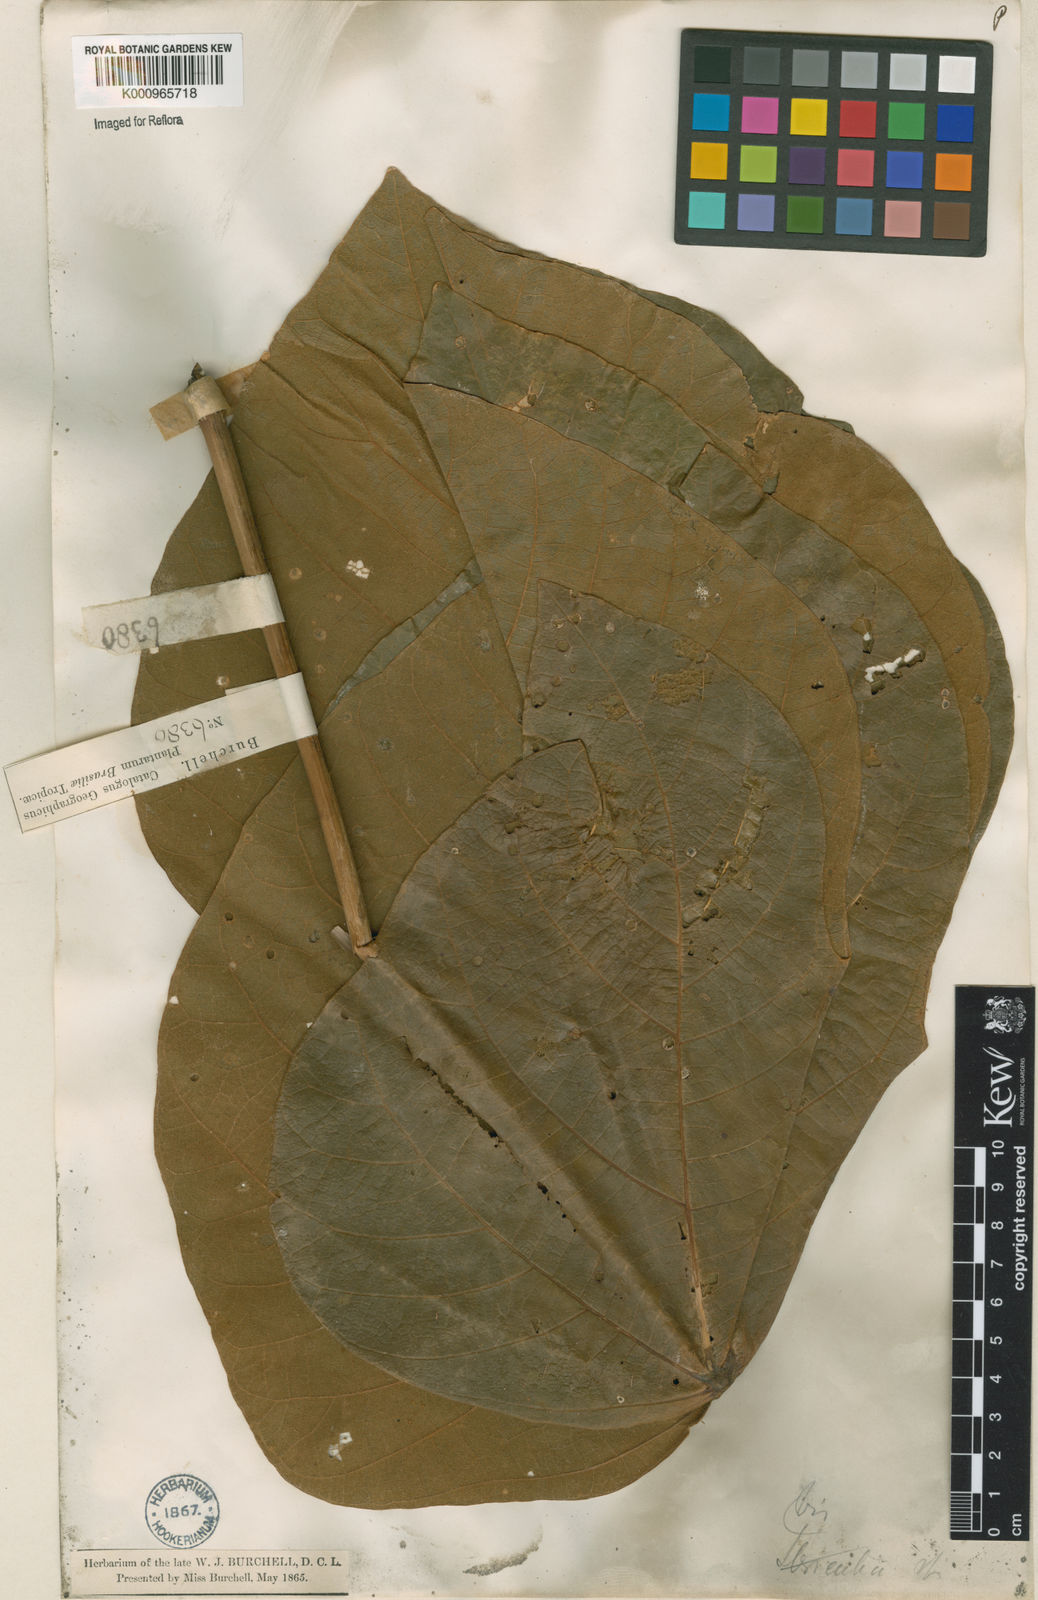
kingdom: Plantae
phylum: Tracheophyta
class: Magnoliopsida
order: Malvales
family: Malvaceae
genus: Sterculia
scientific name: Sterculia striata
